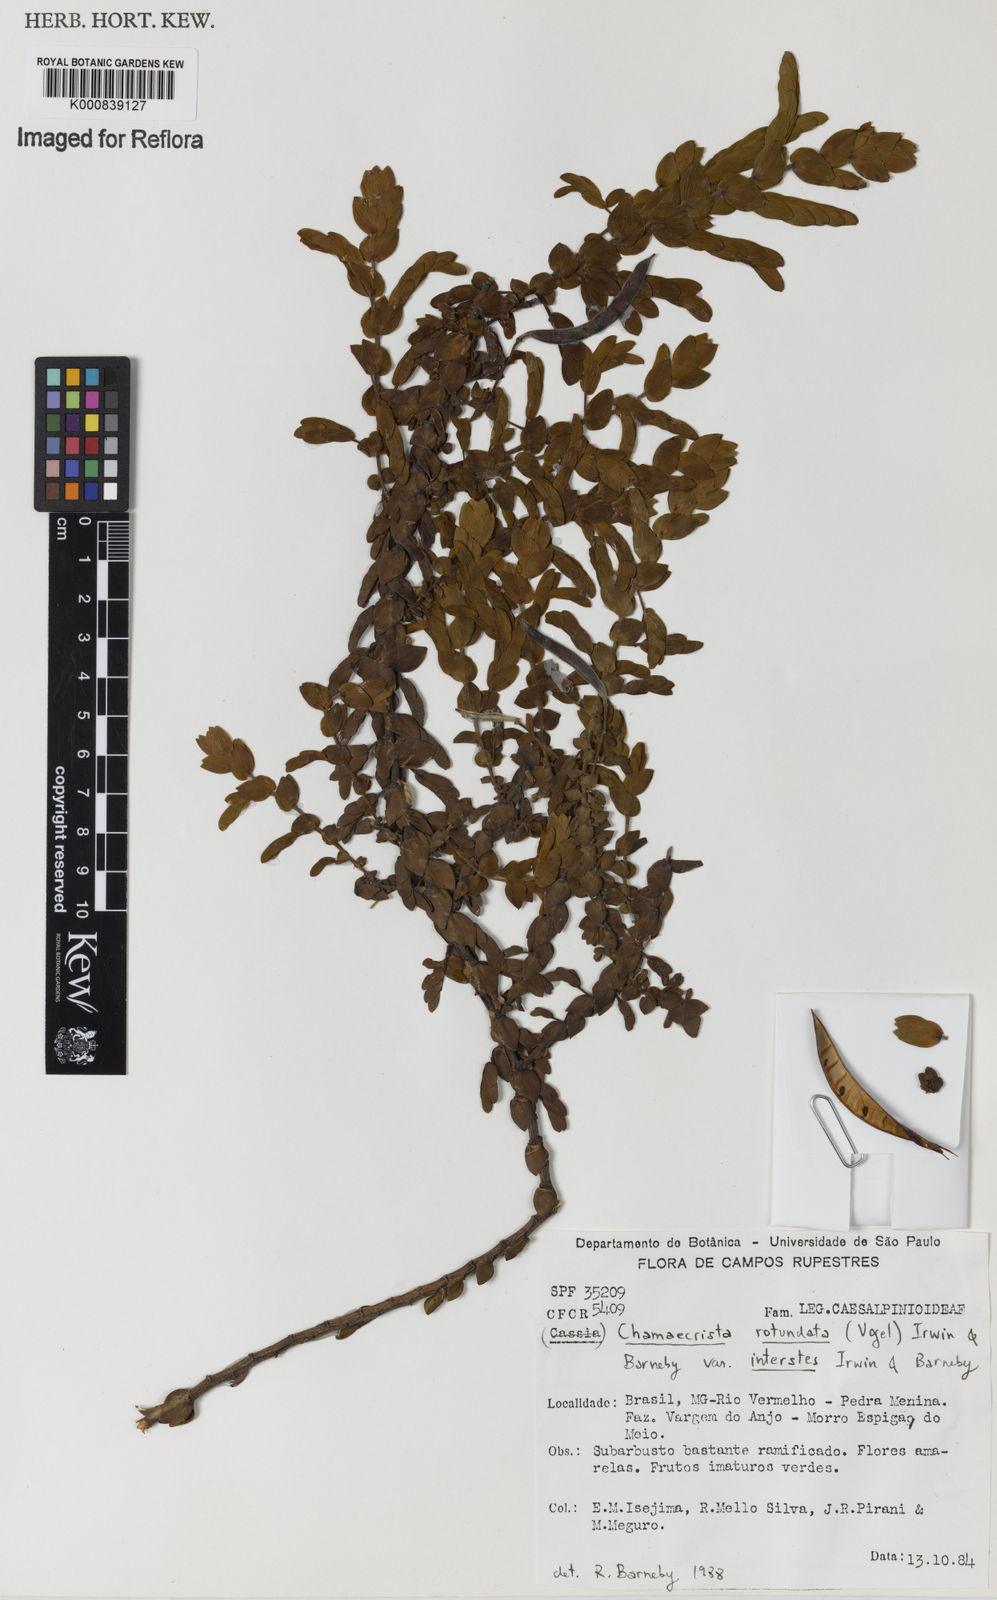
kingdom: Plantae
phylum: Tracheophyta
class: Magnoliopsida
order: Fabales
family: Fabaceae
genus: Chamaecrista
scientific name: Chamaecrista rotundata
